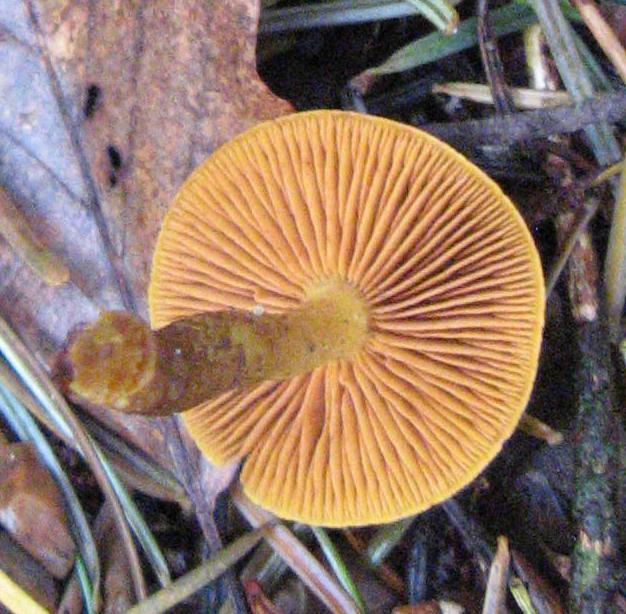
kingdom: Fungi
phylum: Basidiomycota
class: Agaricomycetes
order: Agaricales
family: Hymenogastraceae
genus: Gymnopilus
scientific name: Gymnopilus penetrans
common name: plettet flammehat
